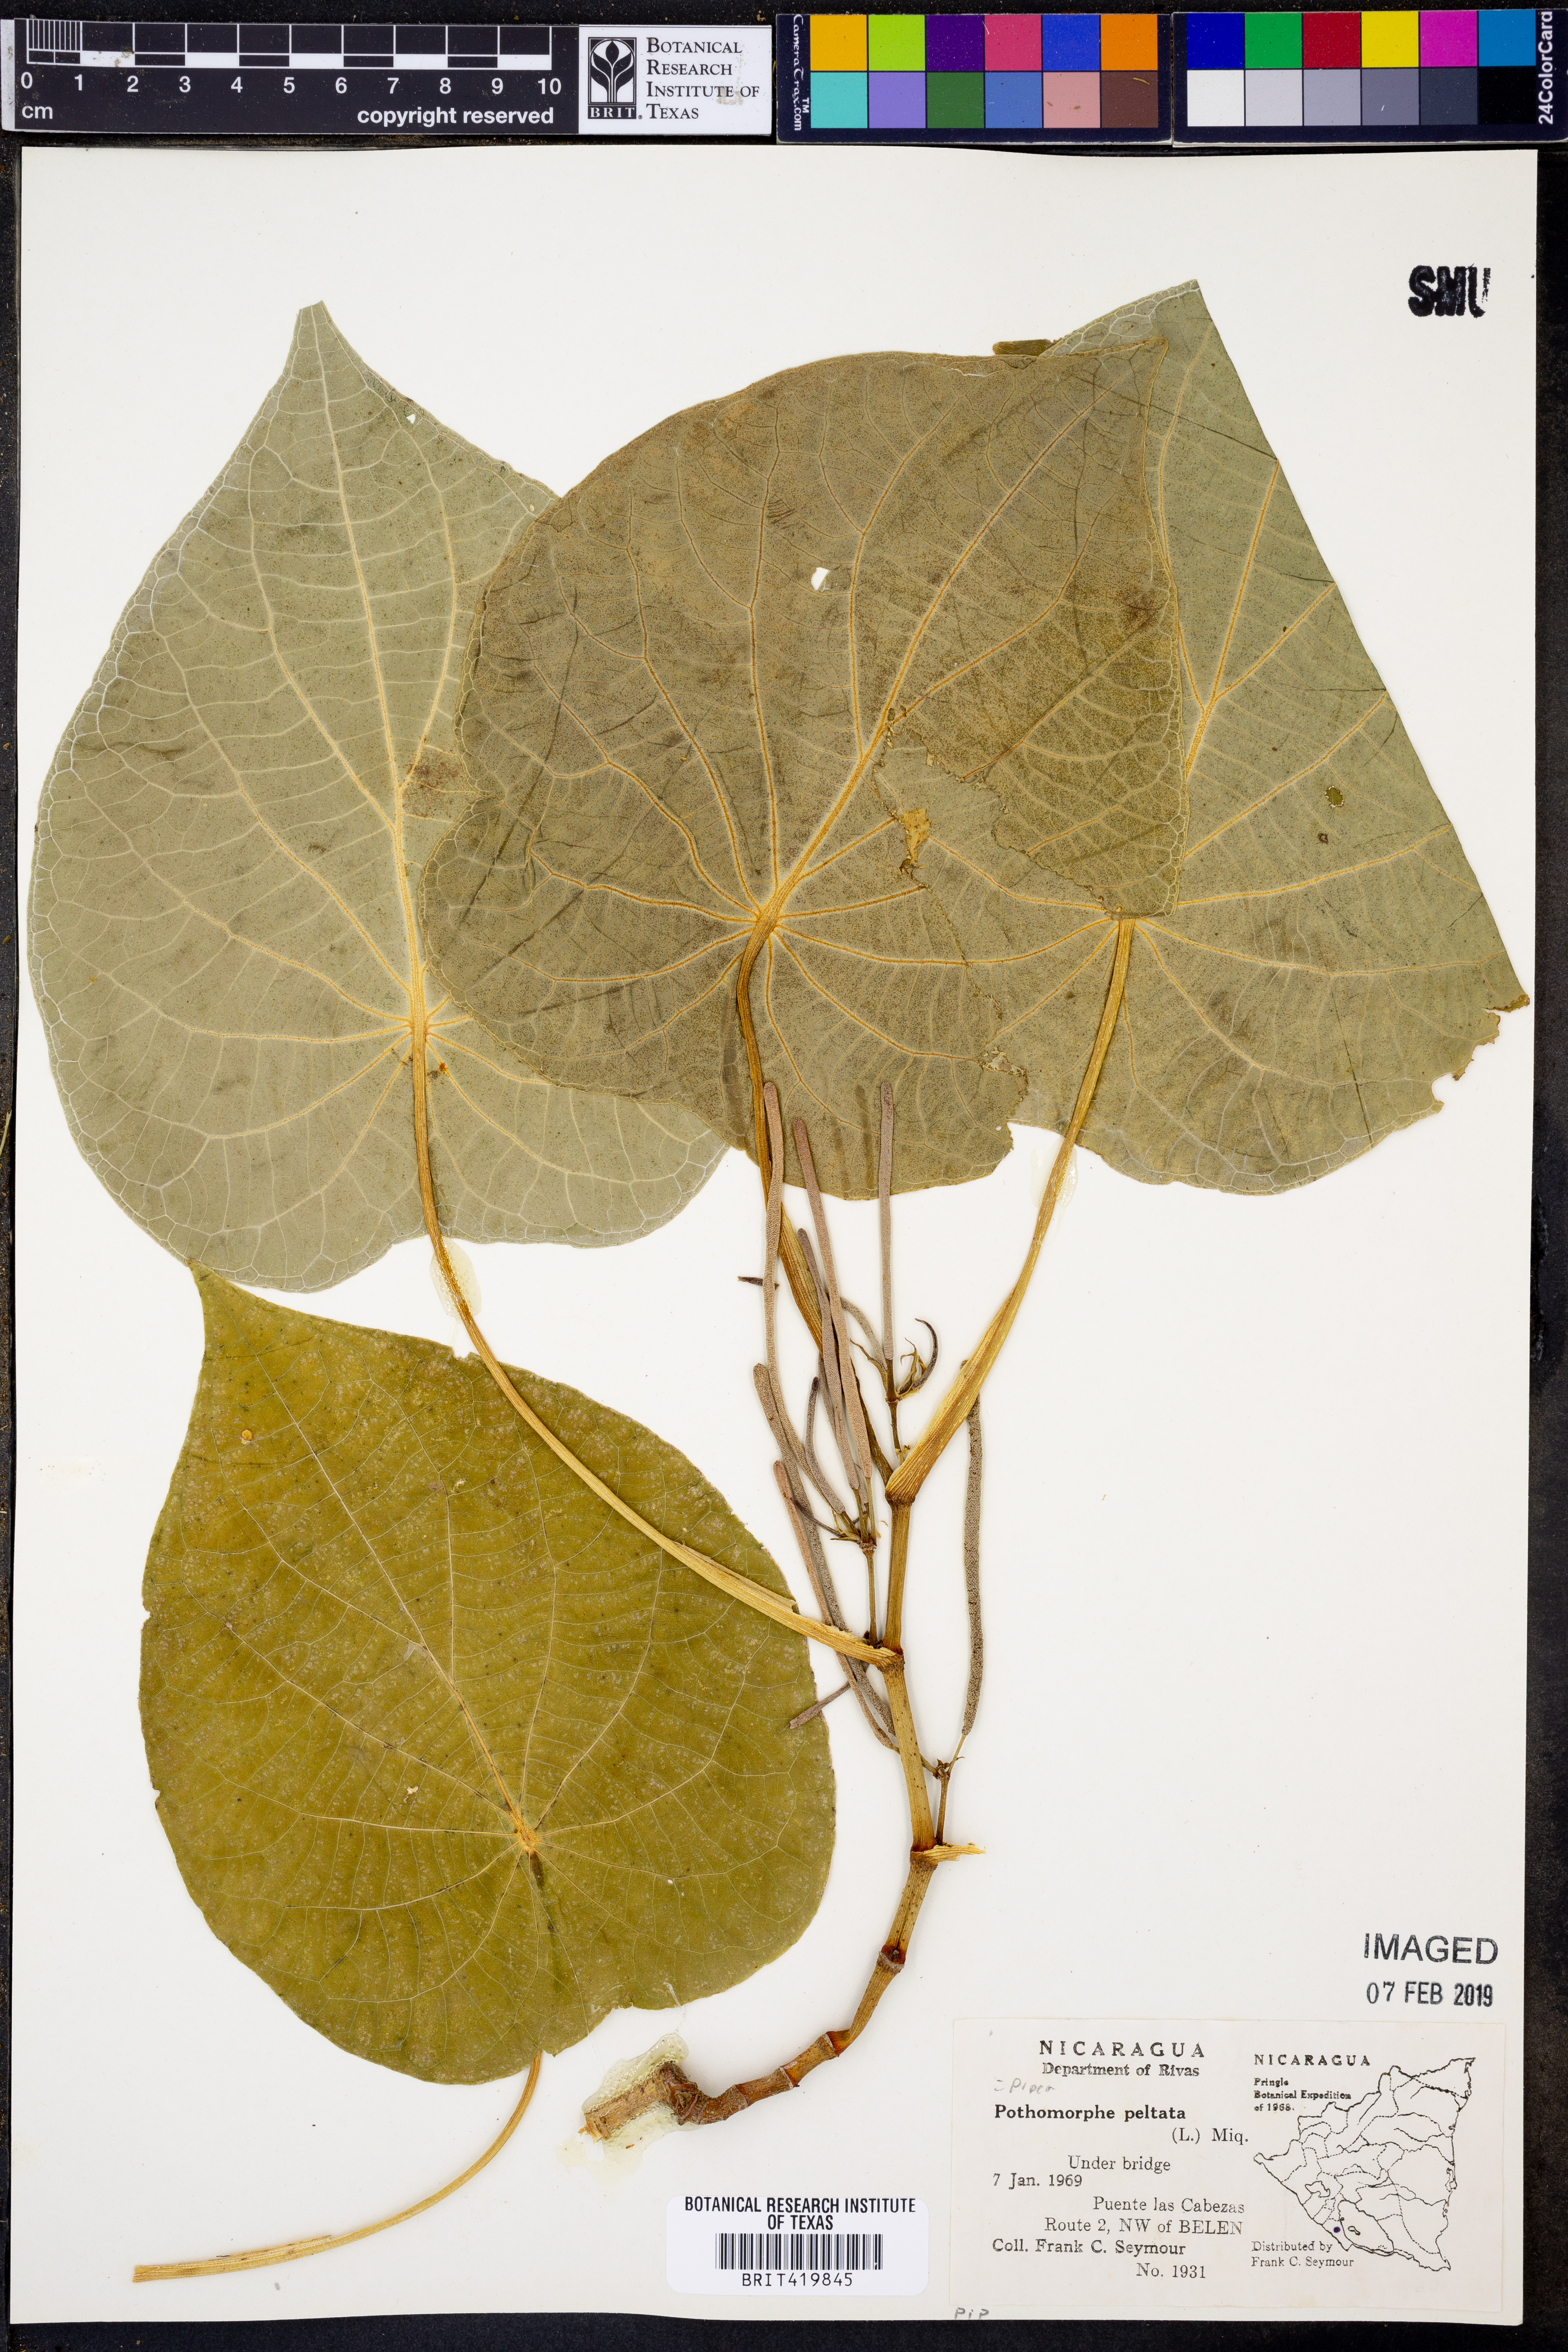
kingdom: Plantae
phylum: Tracheophyta
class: Magnoliopsida
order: Piperales
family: Piperaceae
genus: Piper
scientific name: Piper peltatum
